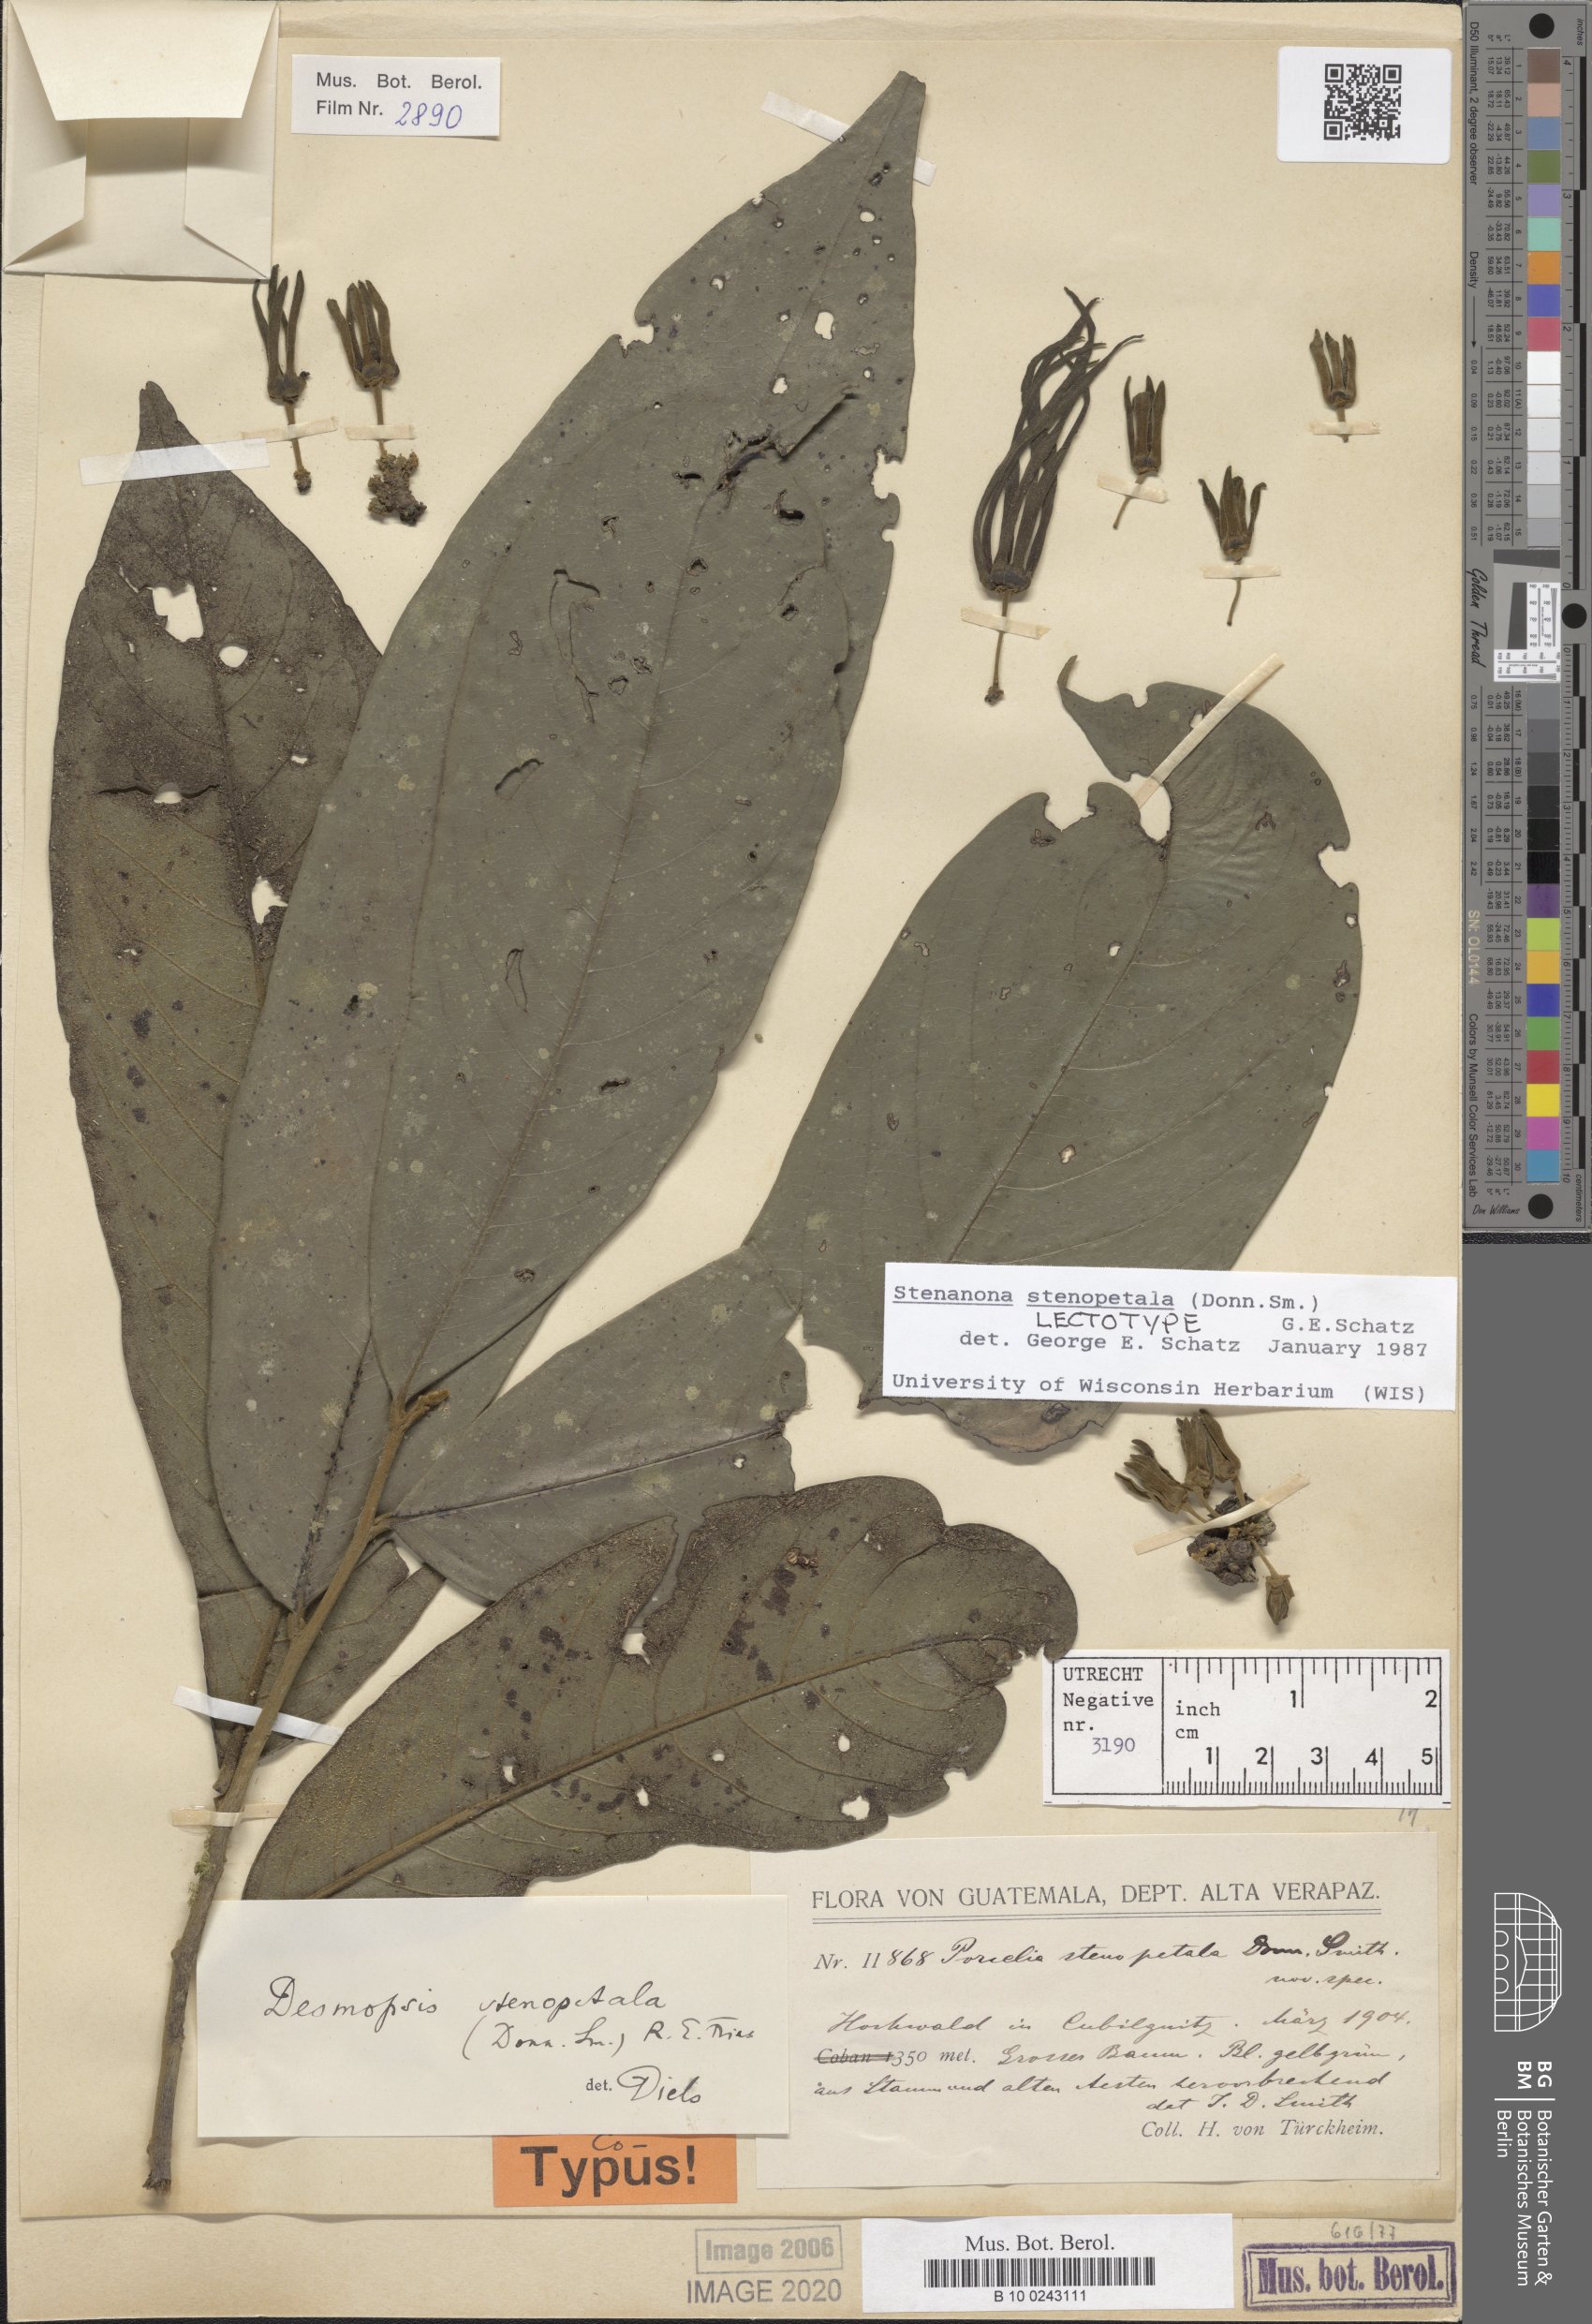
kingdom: Plantae
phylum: Tracheophyta
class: Magnoliopsida
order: Magnoliales
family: Annonaceae
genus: Stenanona
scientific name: Stenanona stenopetala
